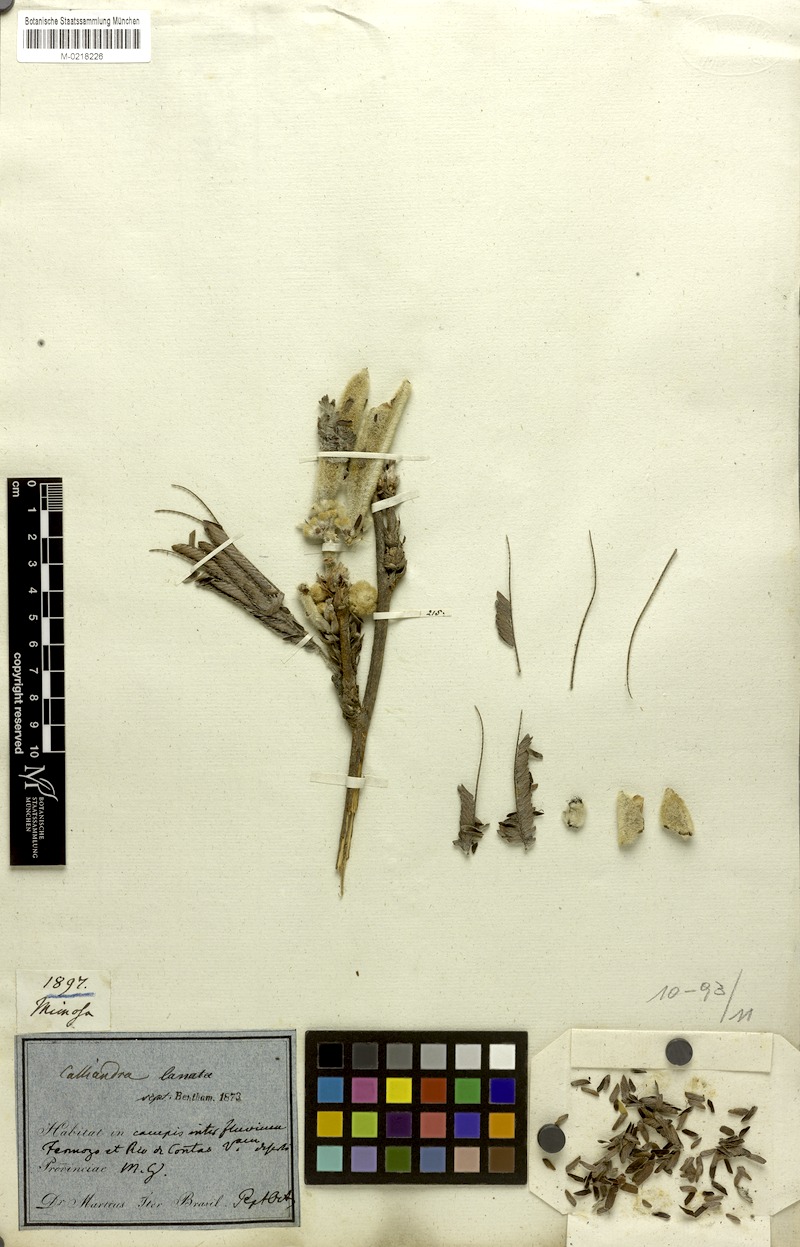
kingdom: Plantae
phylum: Tracheophyta
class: Magnoliopsida
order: Fabales
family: Fabaceae
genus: Calliandra
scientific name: Calliandra lanata
